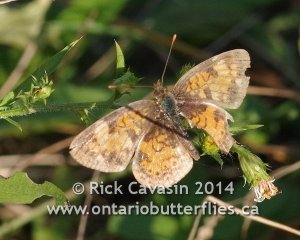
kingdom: Animalia
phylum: Arthropoda
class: Insecta
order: Lepidoptera
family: Nymphalidae
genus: Phyciodes
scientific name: Phyciodes tharos
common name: Northern Crescent
